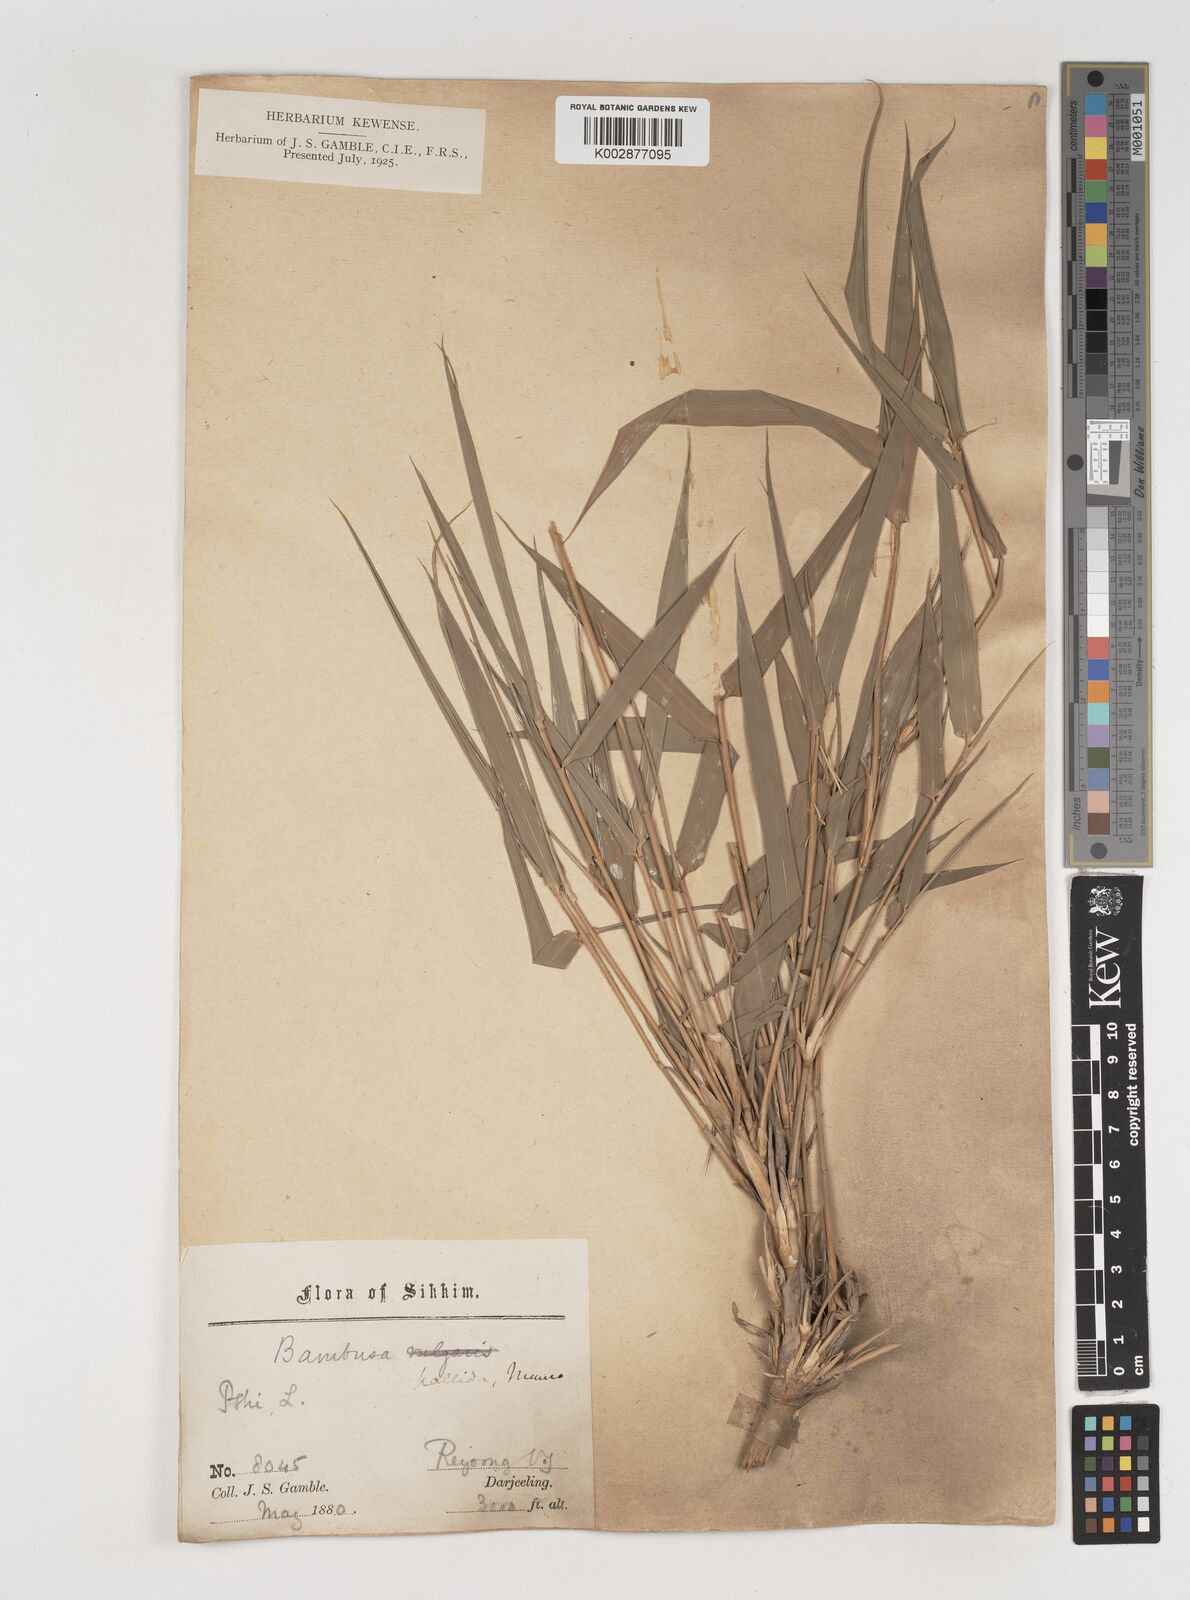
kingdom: Plantae
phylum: Tracheophyta
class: Liliopsida
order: Poales
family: Poaceae
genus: Bambusa
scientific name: Bambusa
